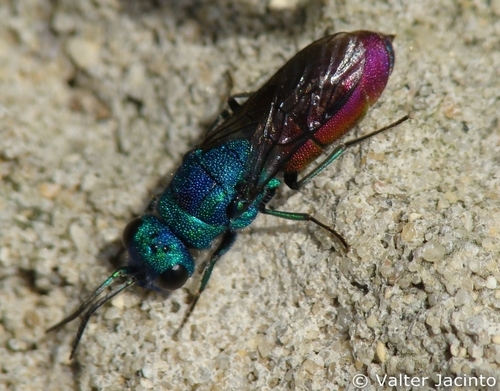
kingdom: Animalia
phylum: Arthropoda
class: Insecta
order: Hymenoptera
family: Chrysididae
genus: Chrysura
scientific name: Chrysura refulgens
